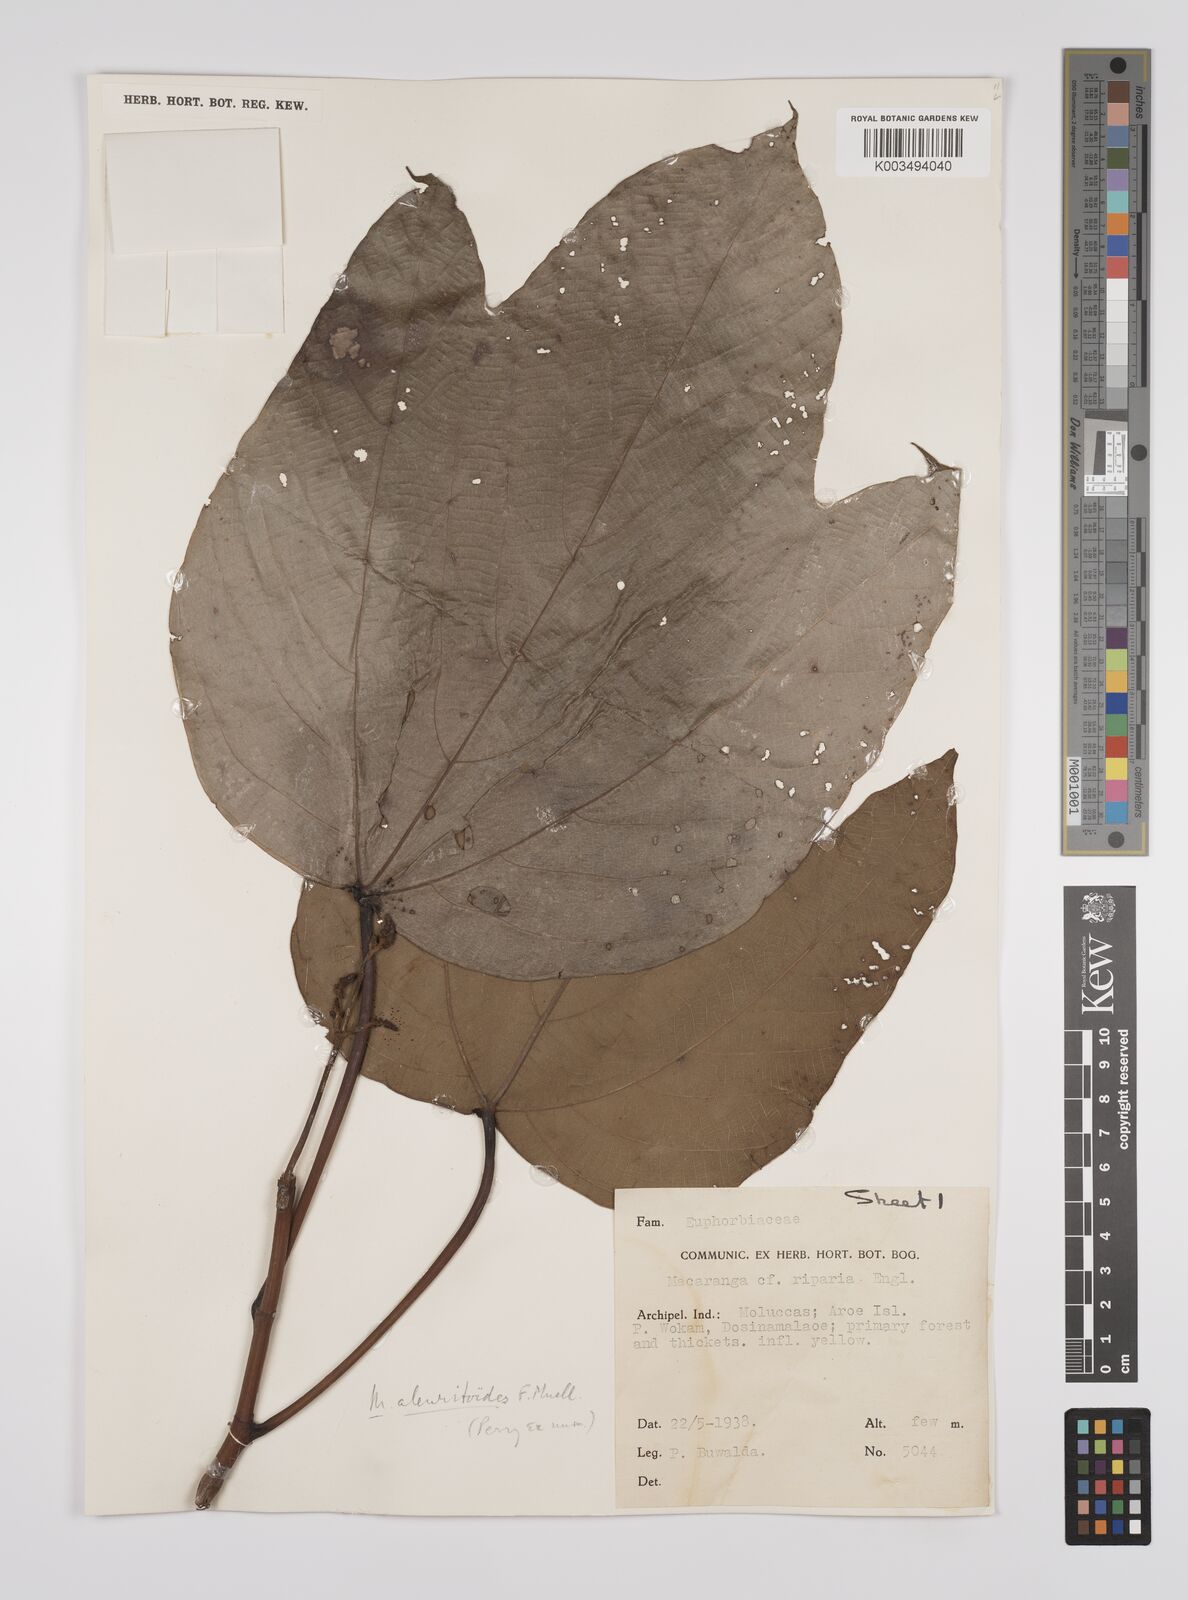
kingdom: Plantae
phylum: Tracheophyta
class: Magnoliopsida
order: Malpighiales
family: Euphorbiaceae
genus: Macaranga
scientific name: Macaranga aleuritoides
